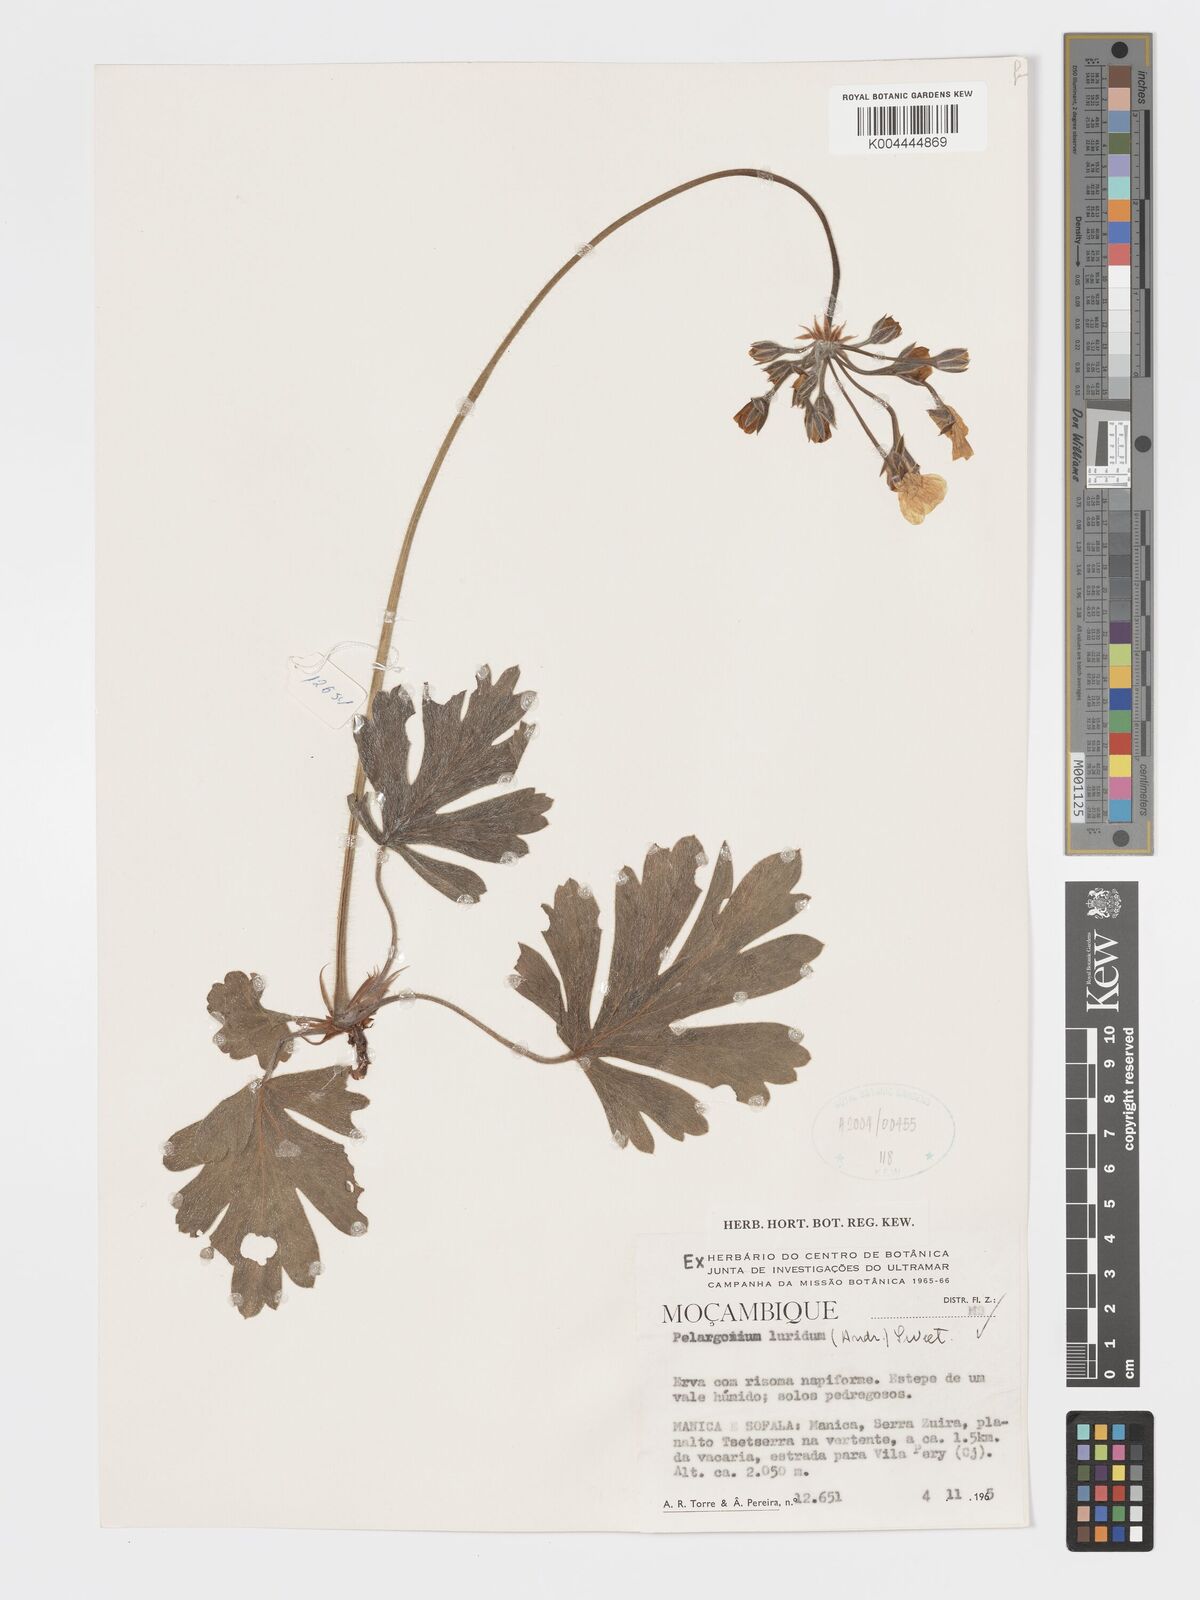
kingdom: Plantae
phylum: Tracheophyta
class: Magnoliopsida
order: Geraniales
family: Geraniaceae
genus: Pelargonium
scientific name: Pelargonium luridum
